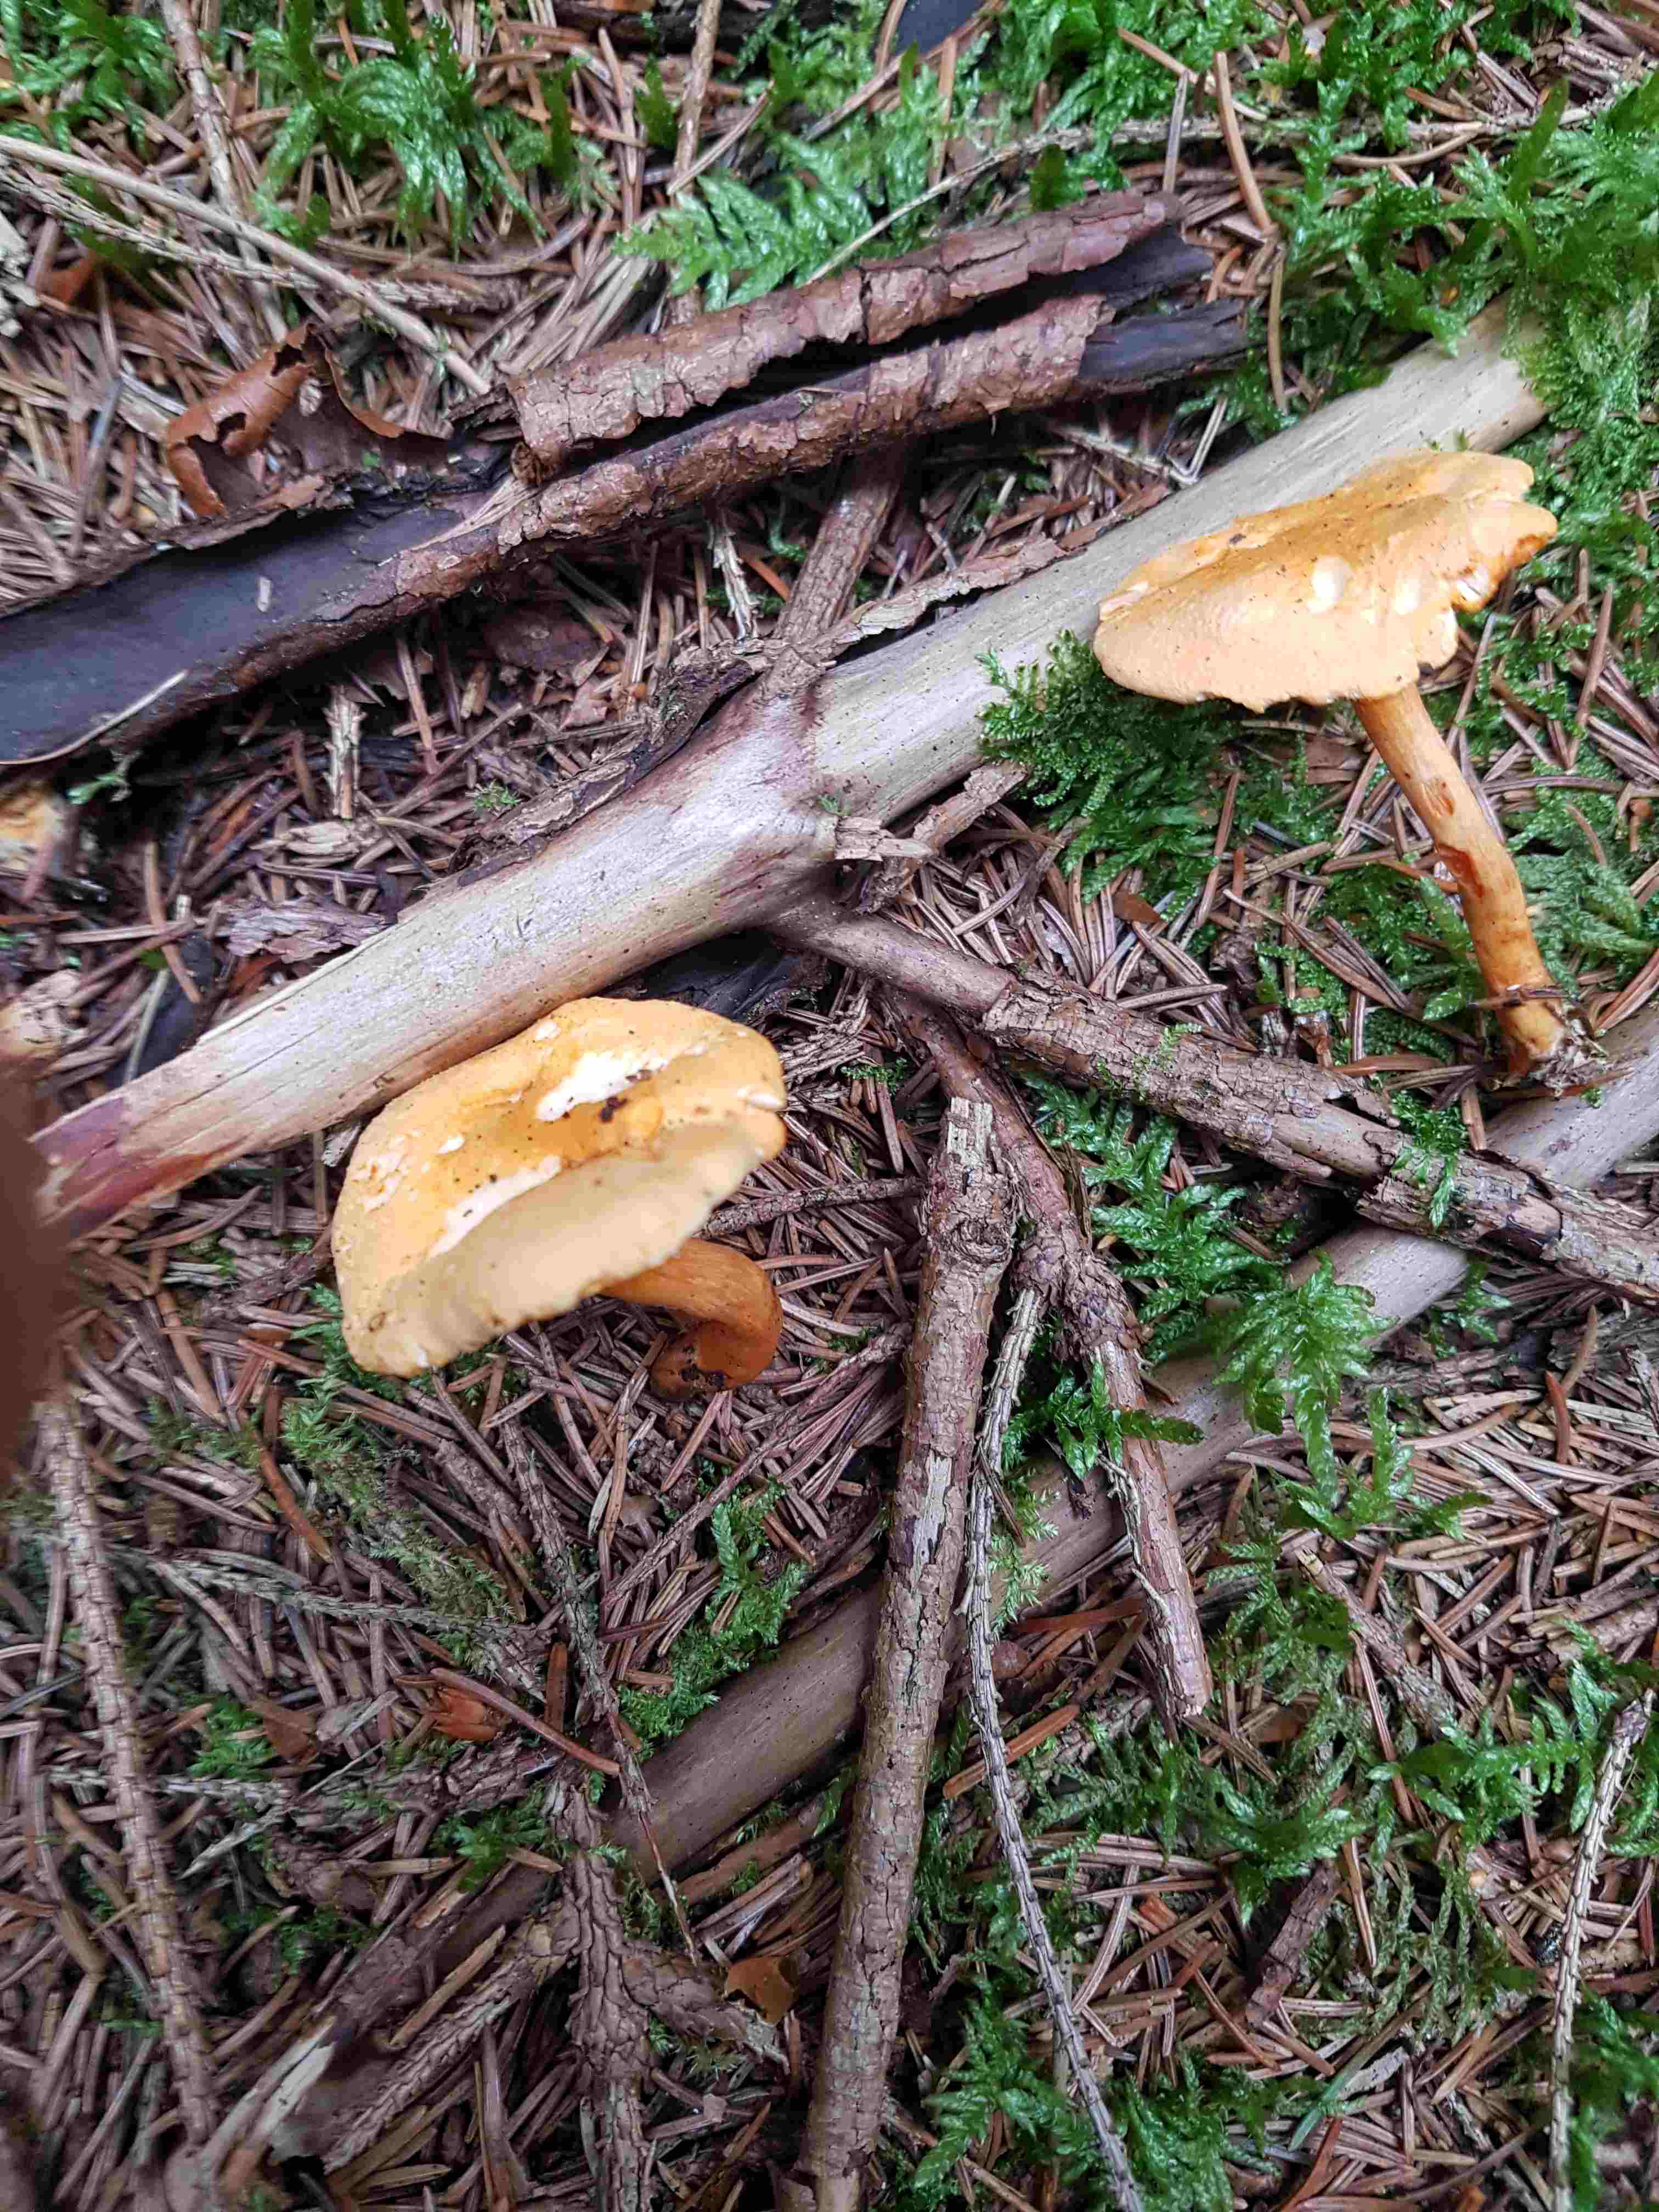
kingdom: Fungi
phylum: Basidiomycota
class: Agaricomycetes
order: Boletales
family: Hygrophoropsidaceae
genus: Hygrophoropsis
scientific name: Hygrophoropsis aurantiaca
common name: almindelig orangekantarel
